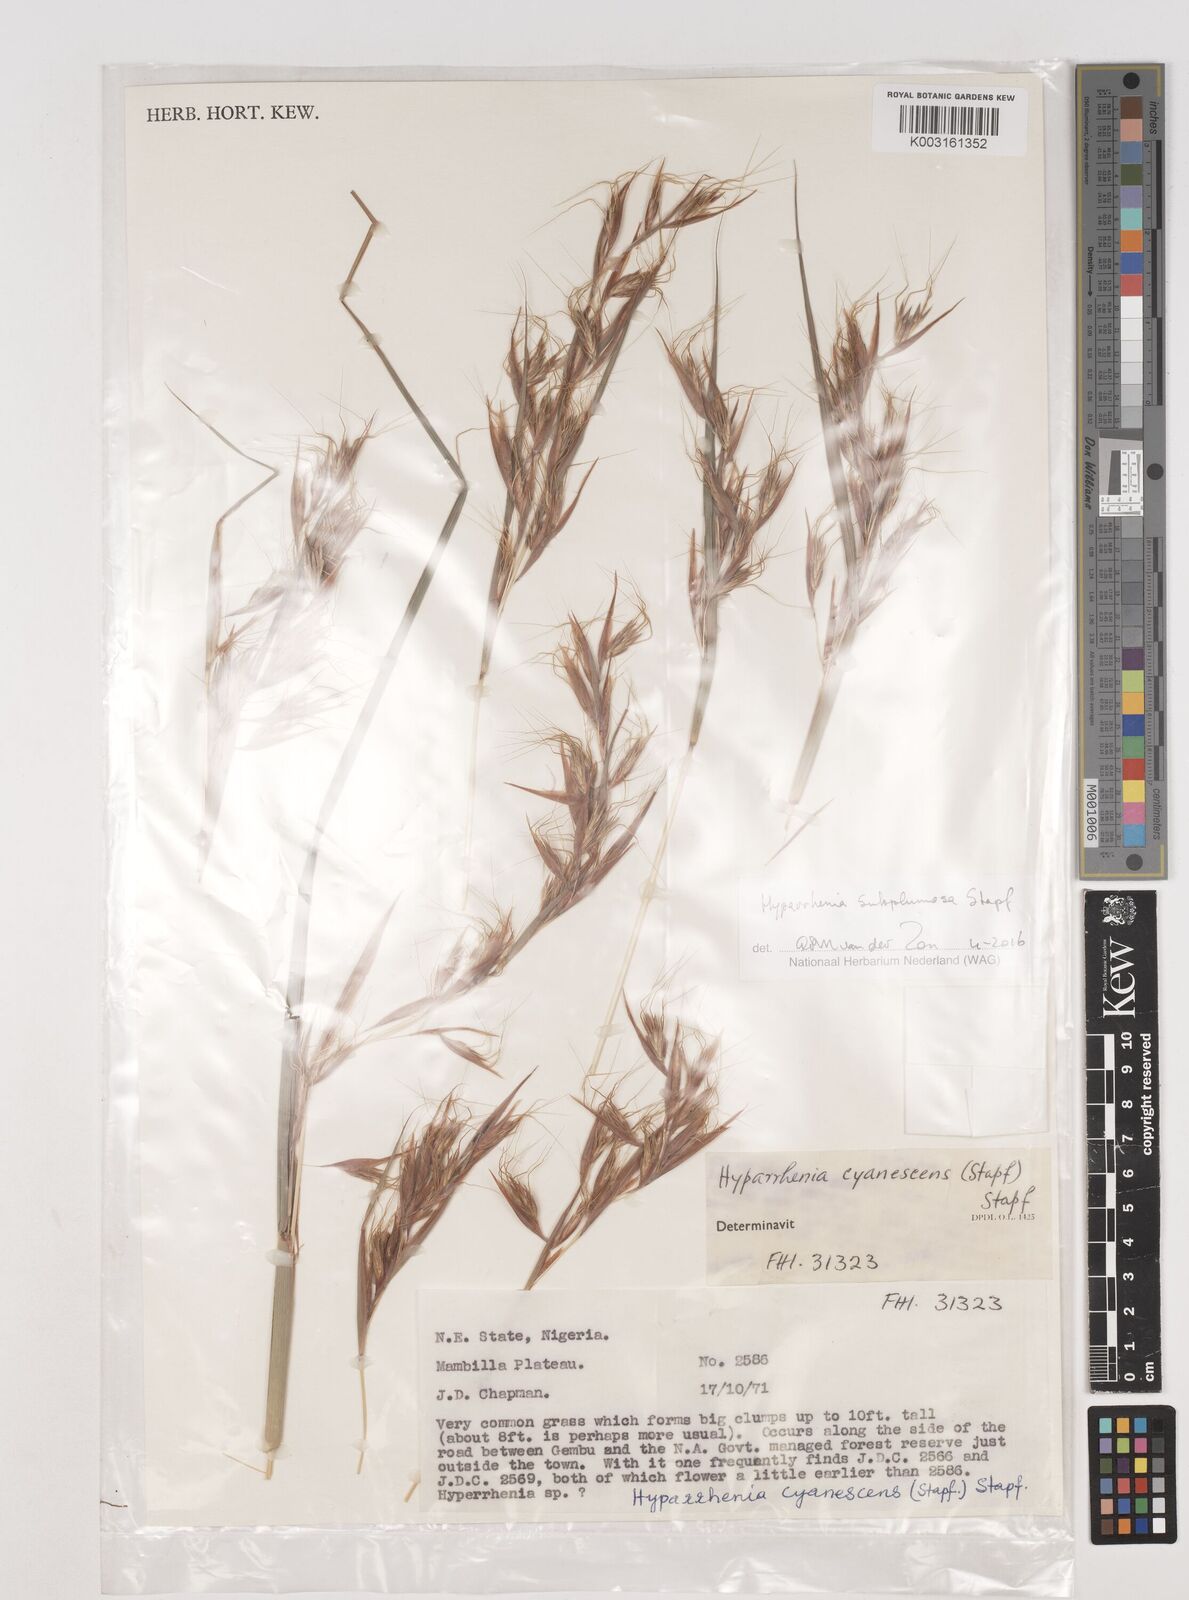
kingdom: Plantae
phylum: Tracheophyta
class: Liliopsida
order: Poales
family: Poaceae
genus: Hyparrhenia
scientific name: Hyparrhenia subplumosa
